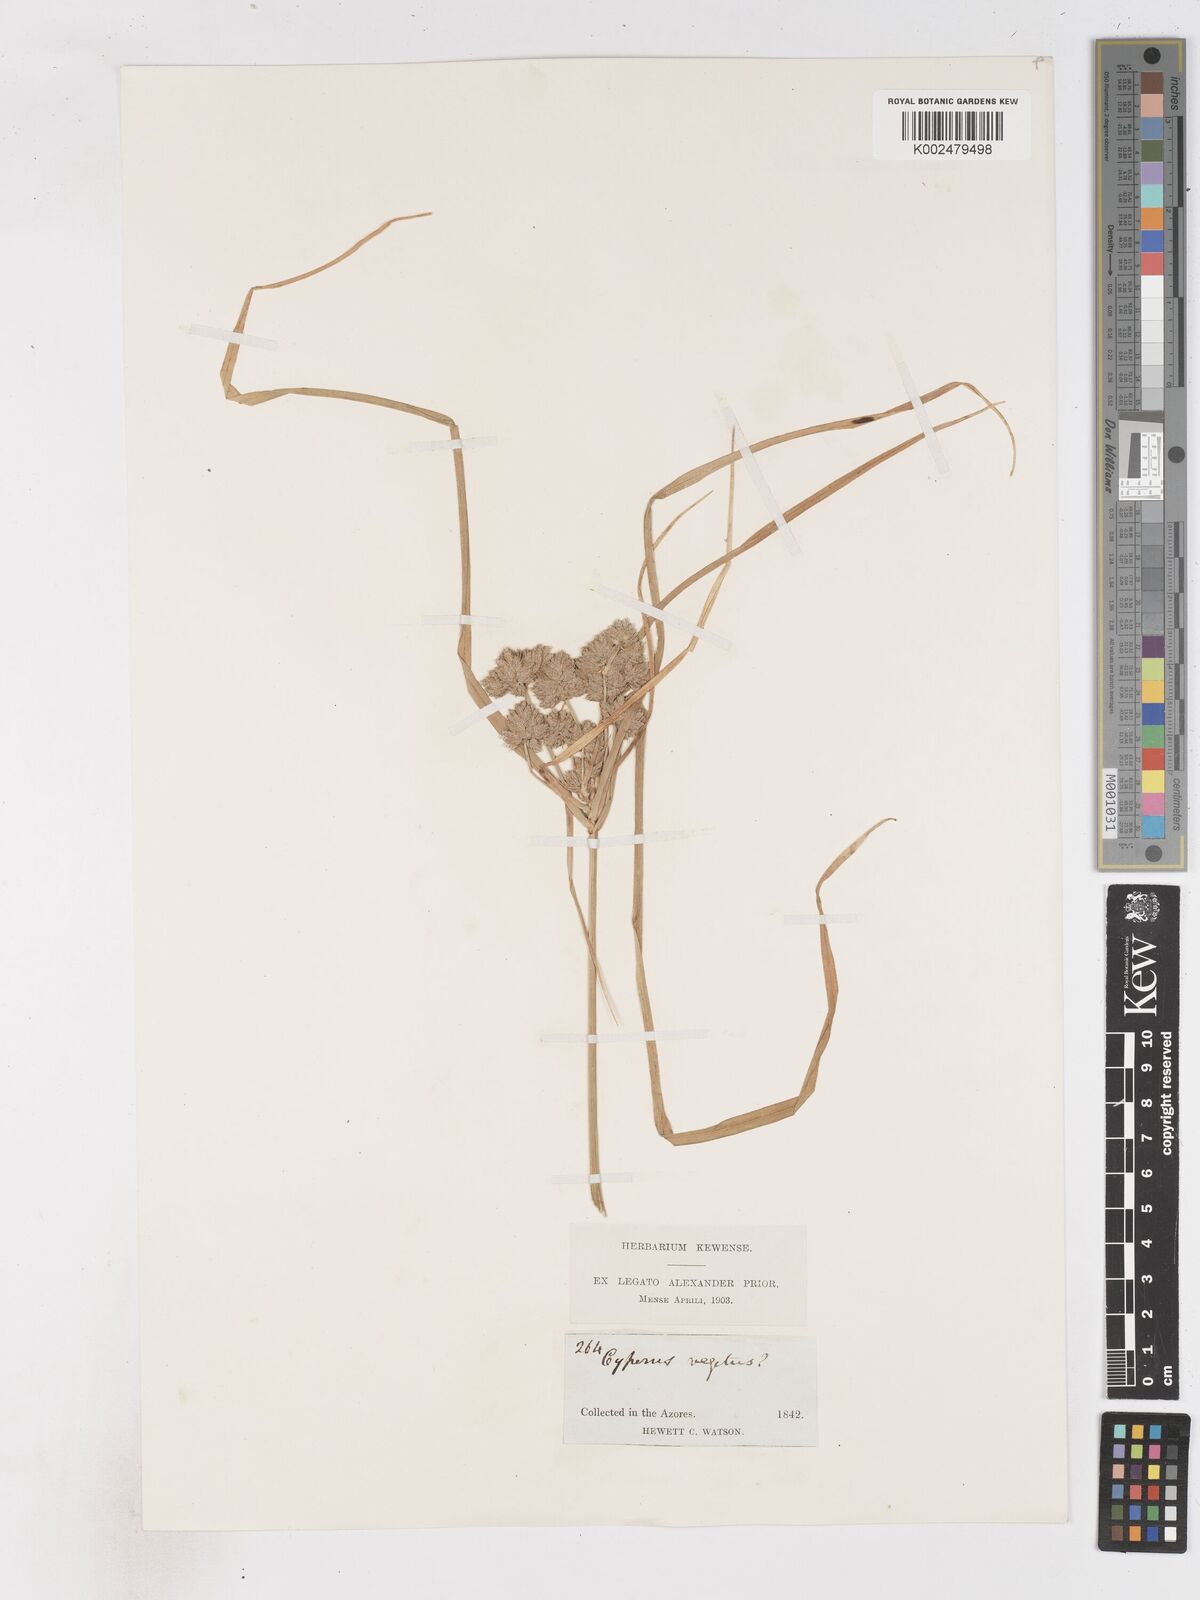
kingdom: Plantae
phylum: Tracheophyta
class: Liliopsida
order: Poales
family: Cyperaceae
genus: Cyperus
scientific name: Cyperus eragrostis
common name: Tall flatsedge
